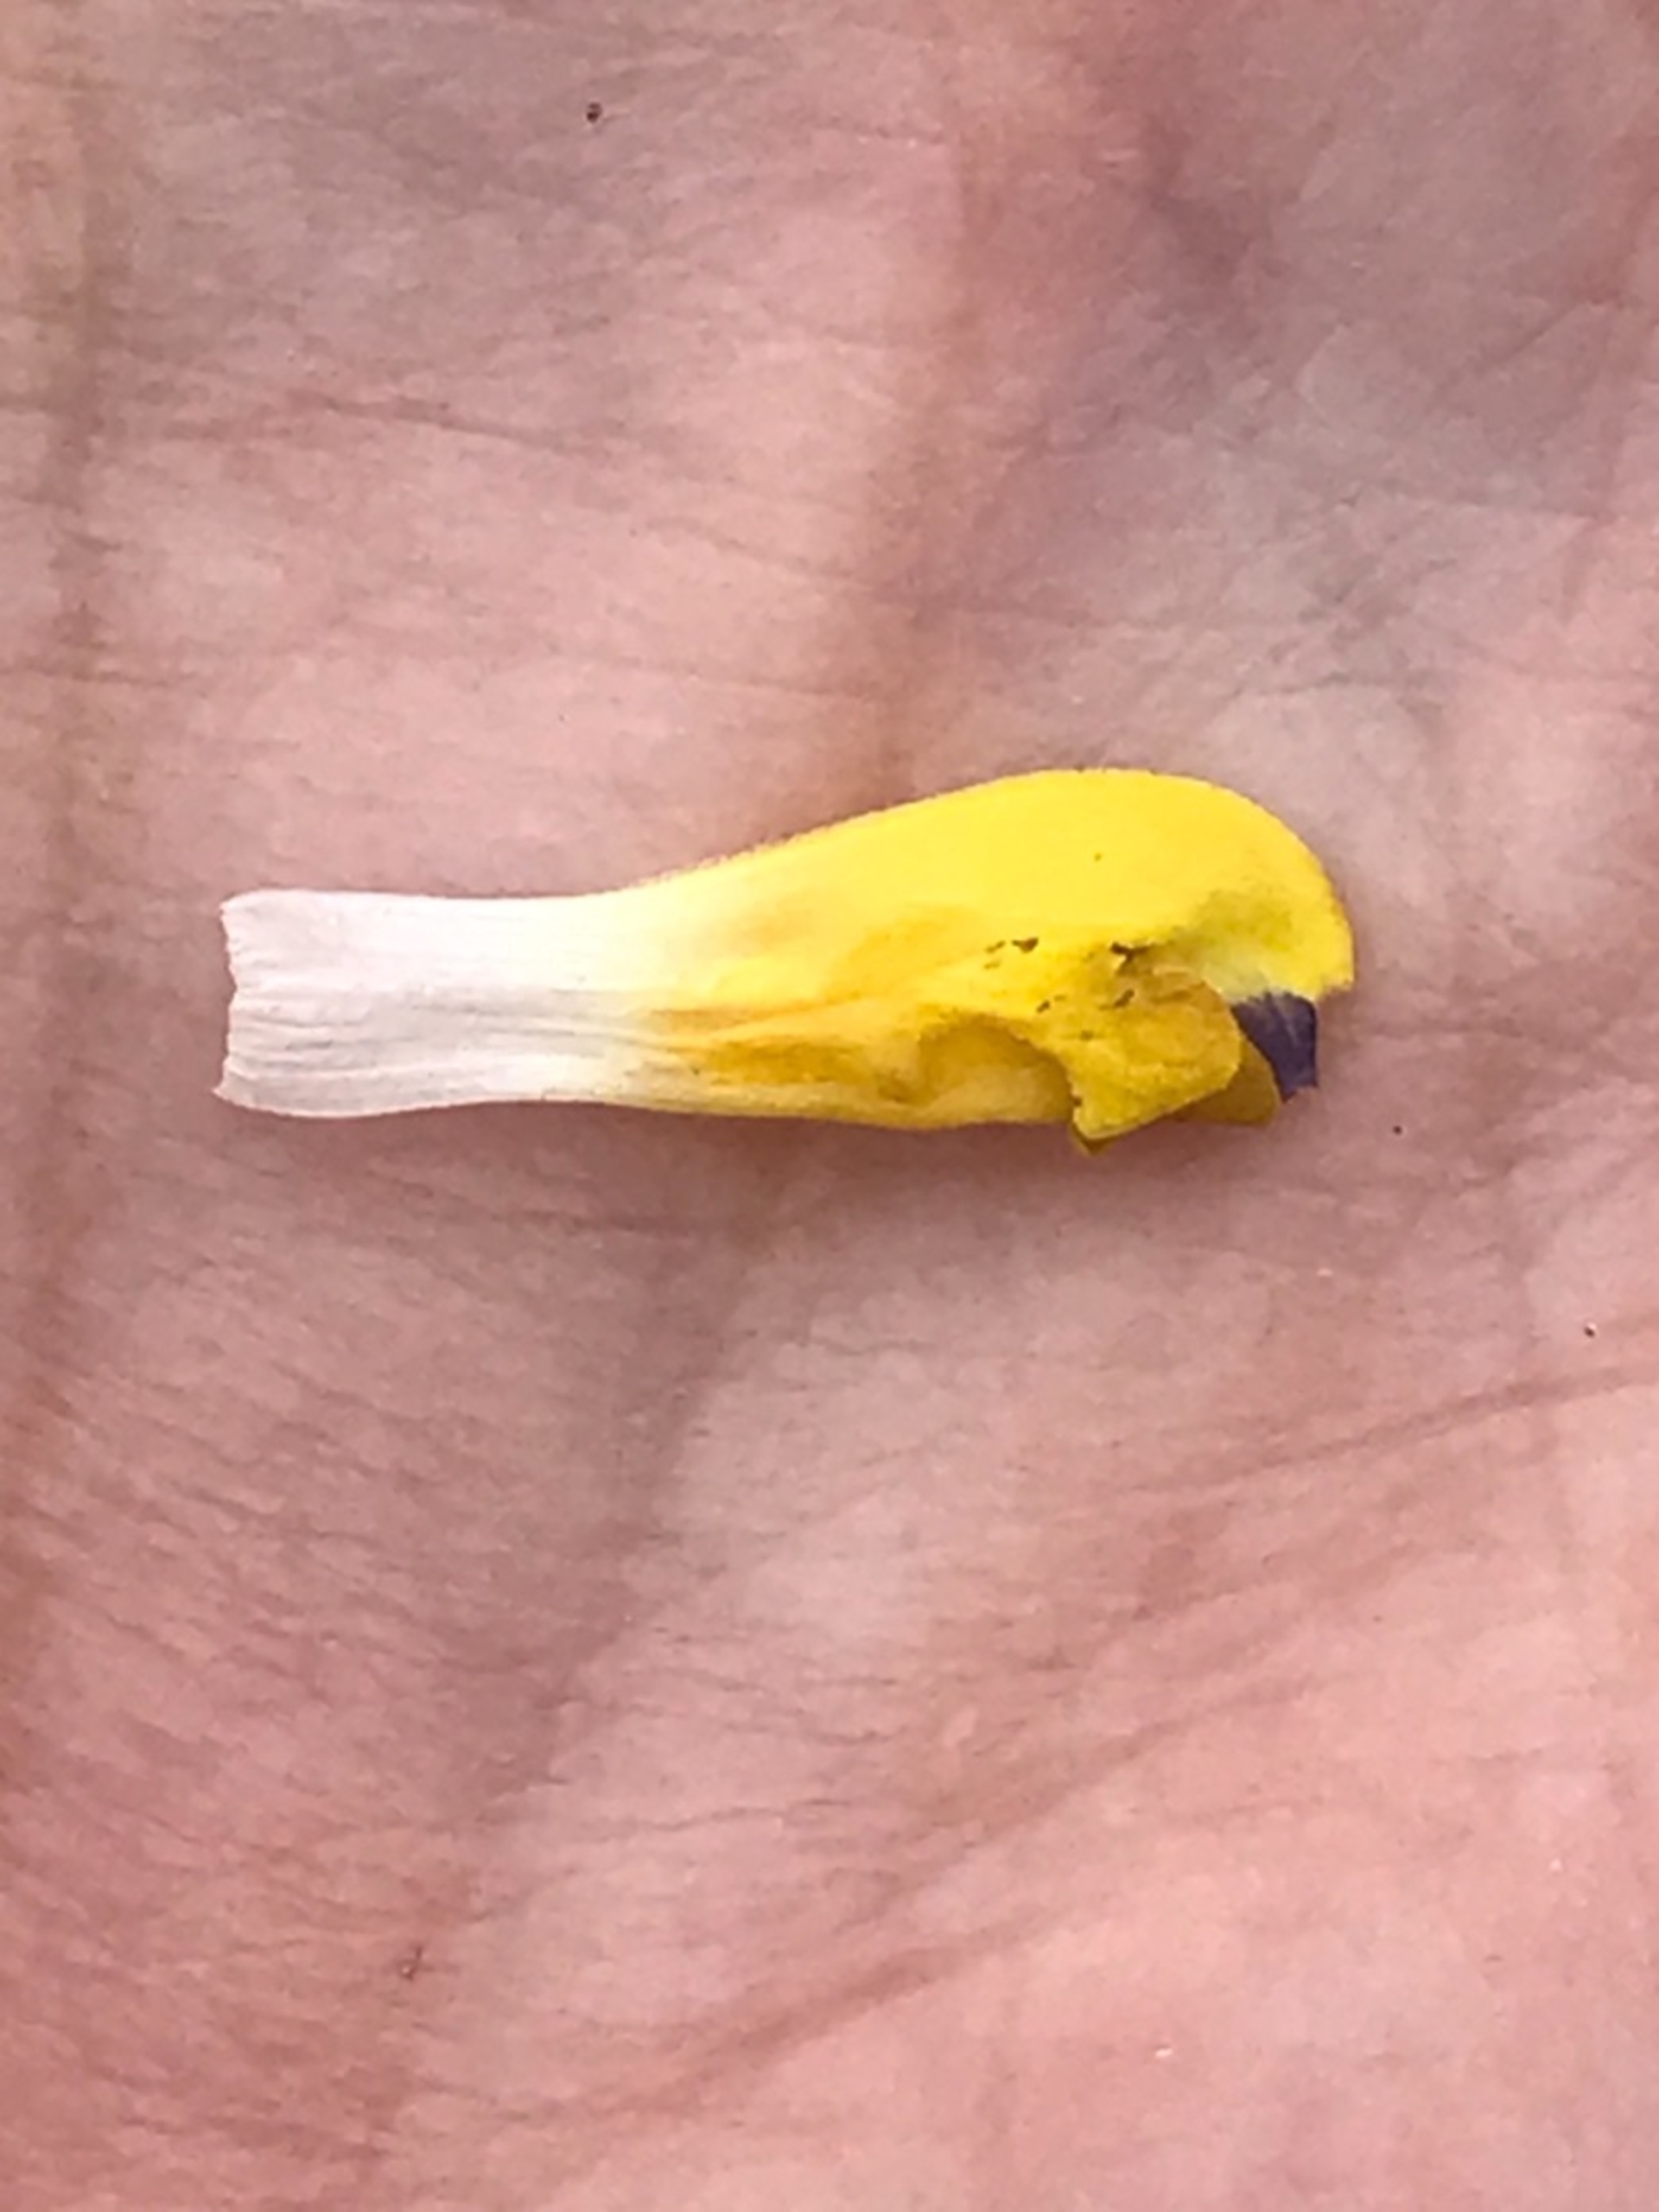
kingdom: Plantae
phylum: Tracheophyta
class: Magnoliopsida
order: Lamiales
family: Orobanchaceae
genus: Rhinanthus
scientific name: Rhinanthus
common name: Stor skjaller
